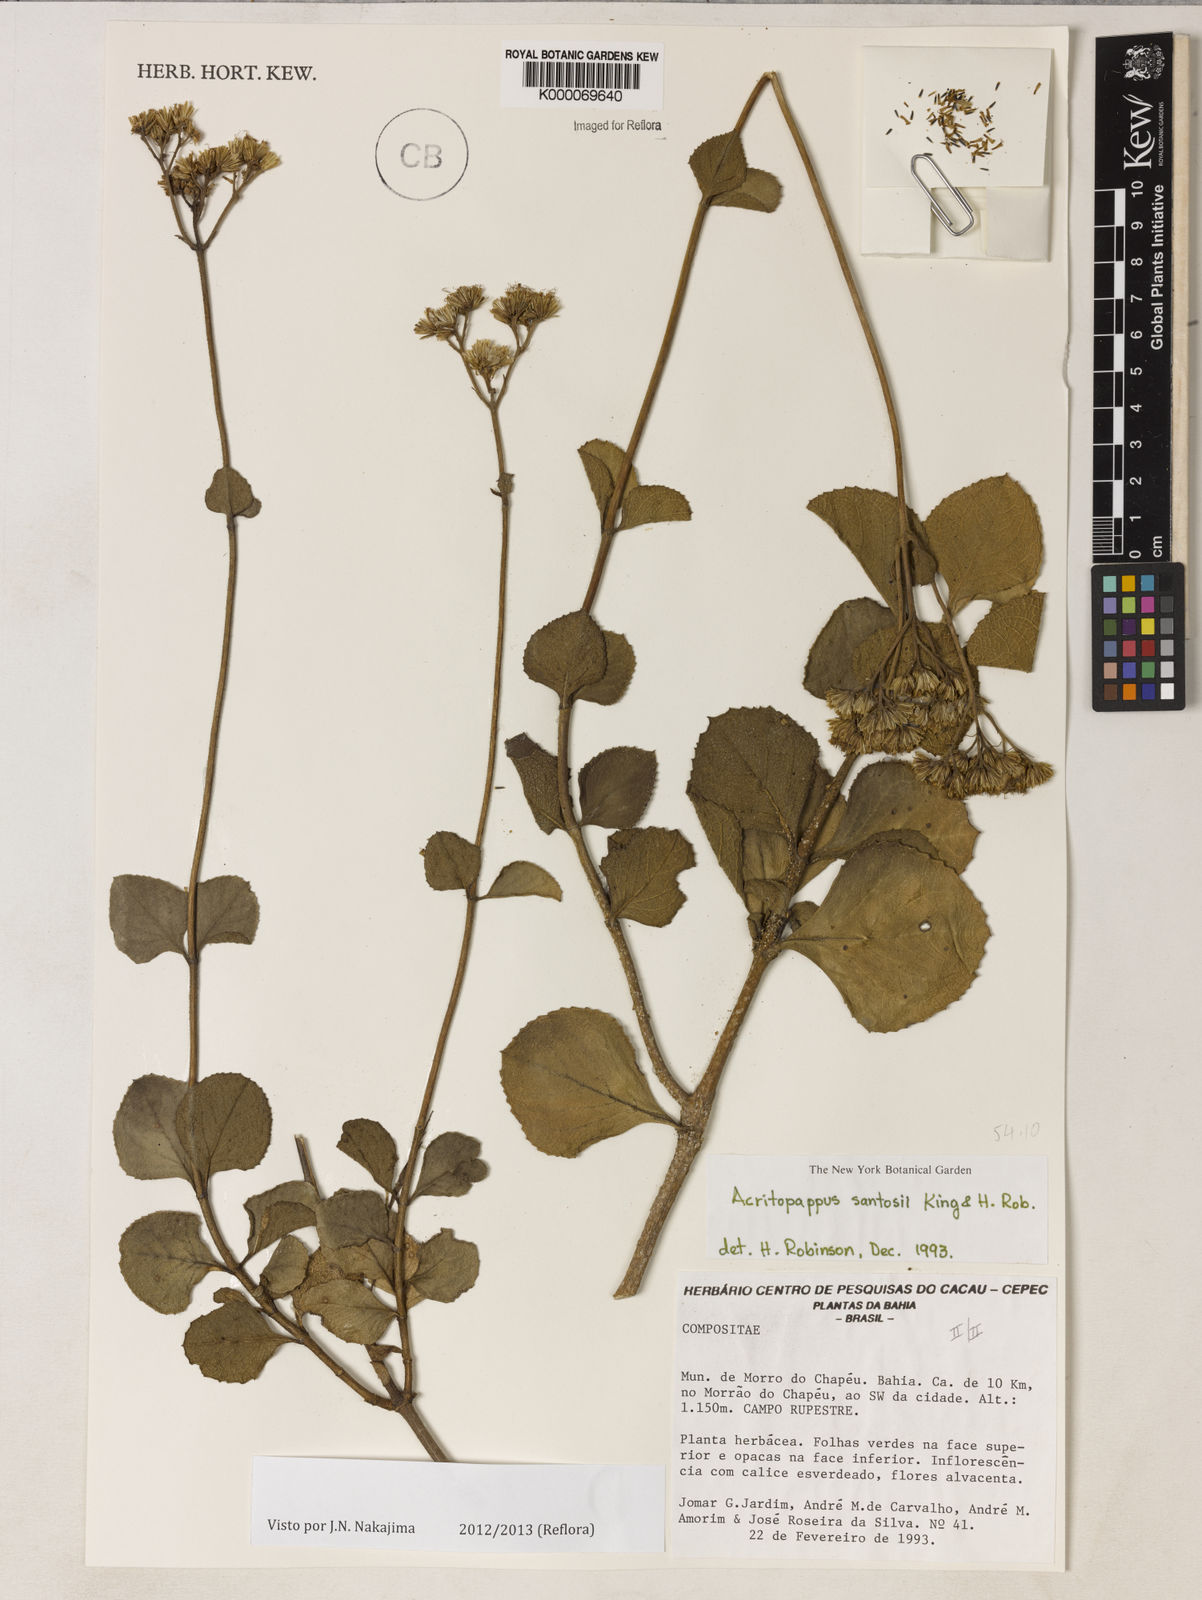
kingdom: Plantae
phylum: Tracheophyta
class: Magnoliopsida
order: Asterales
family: Asteraceae
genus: Acritopappus
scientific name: Acritopappus santosii
